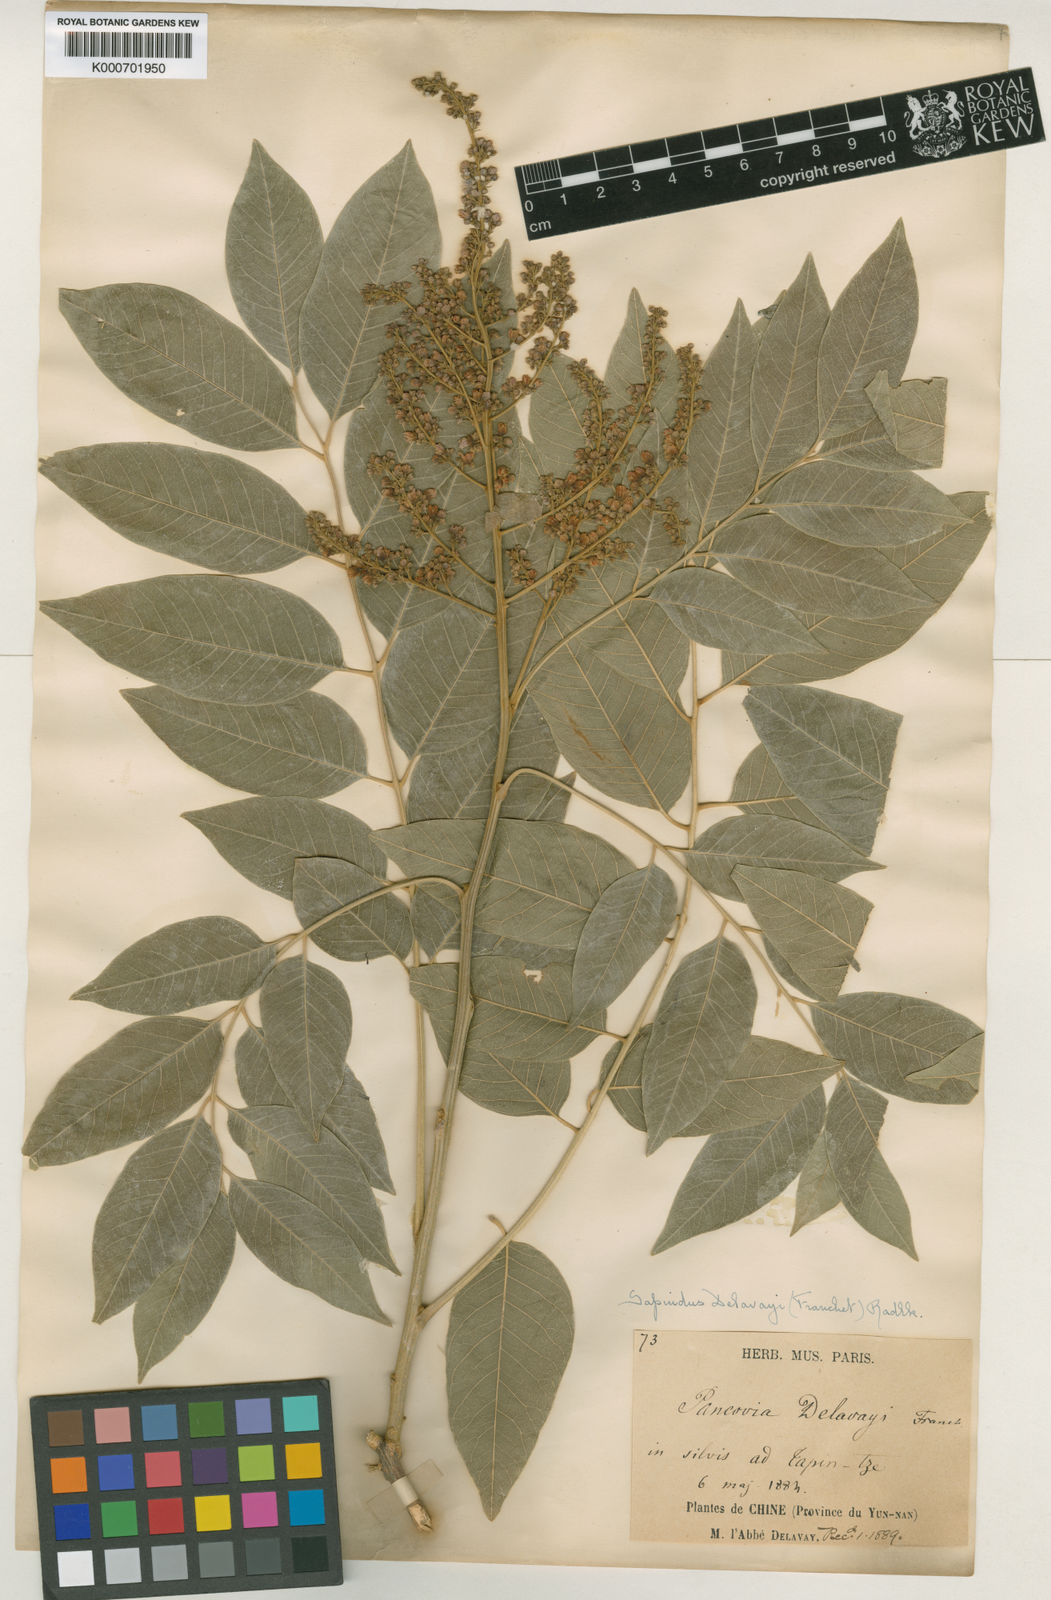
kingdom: Plantae
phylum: Tracheophyta
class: Magnoliopsida
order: Sapindales
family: Sapindaceae
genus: Sapindus
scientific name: Sapindus delavayi
